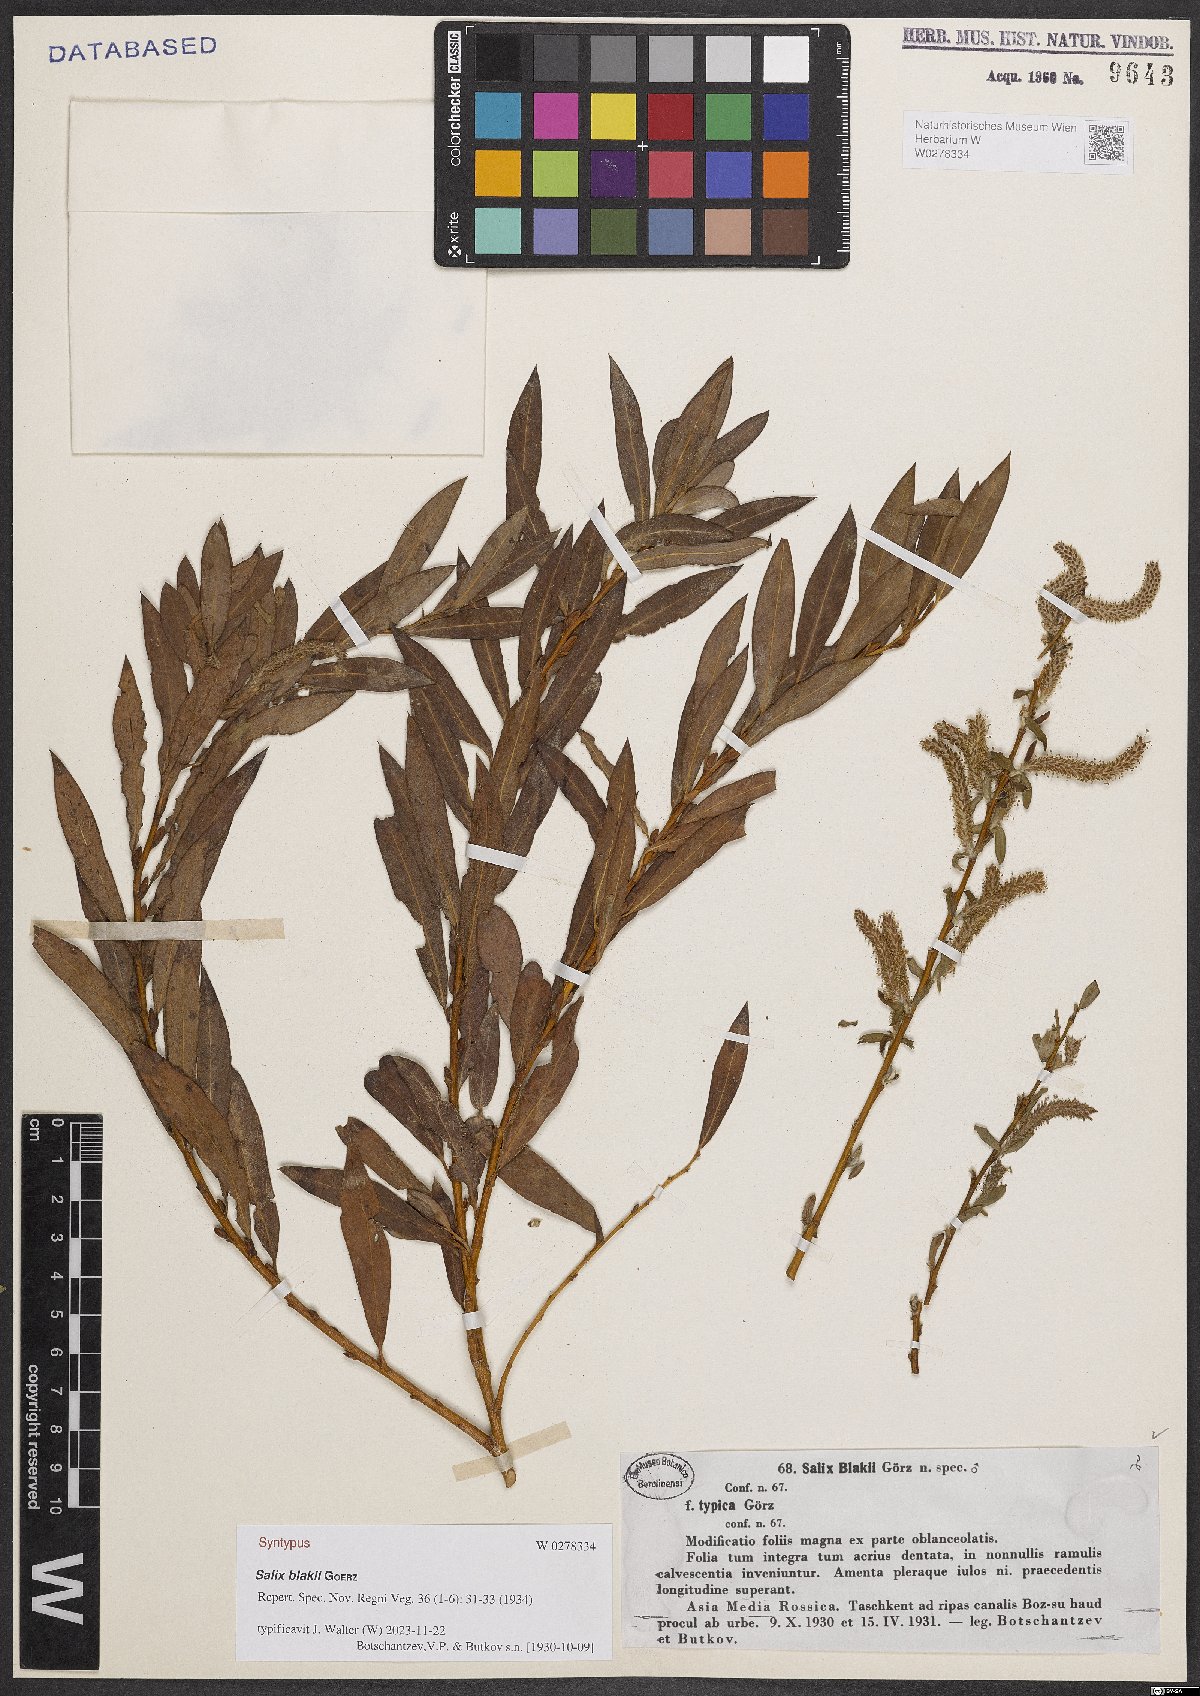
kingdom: Plantae
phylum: Tracheophyta
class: Magnoliopsida
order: Malpighiales
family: Salicaceae
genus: Salix
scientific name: Salix blakii
